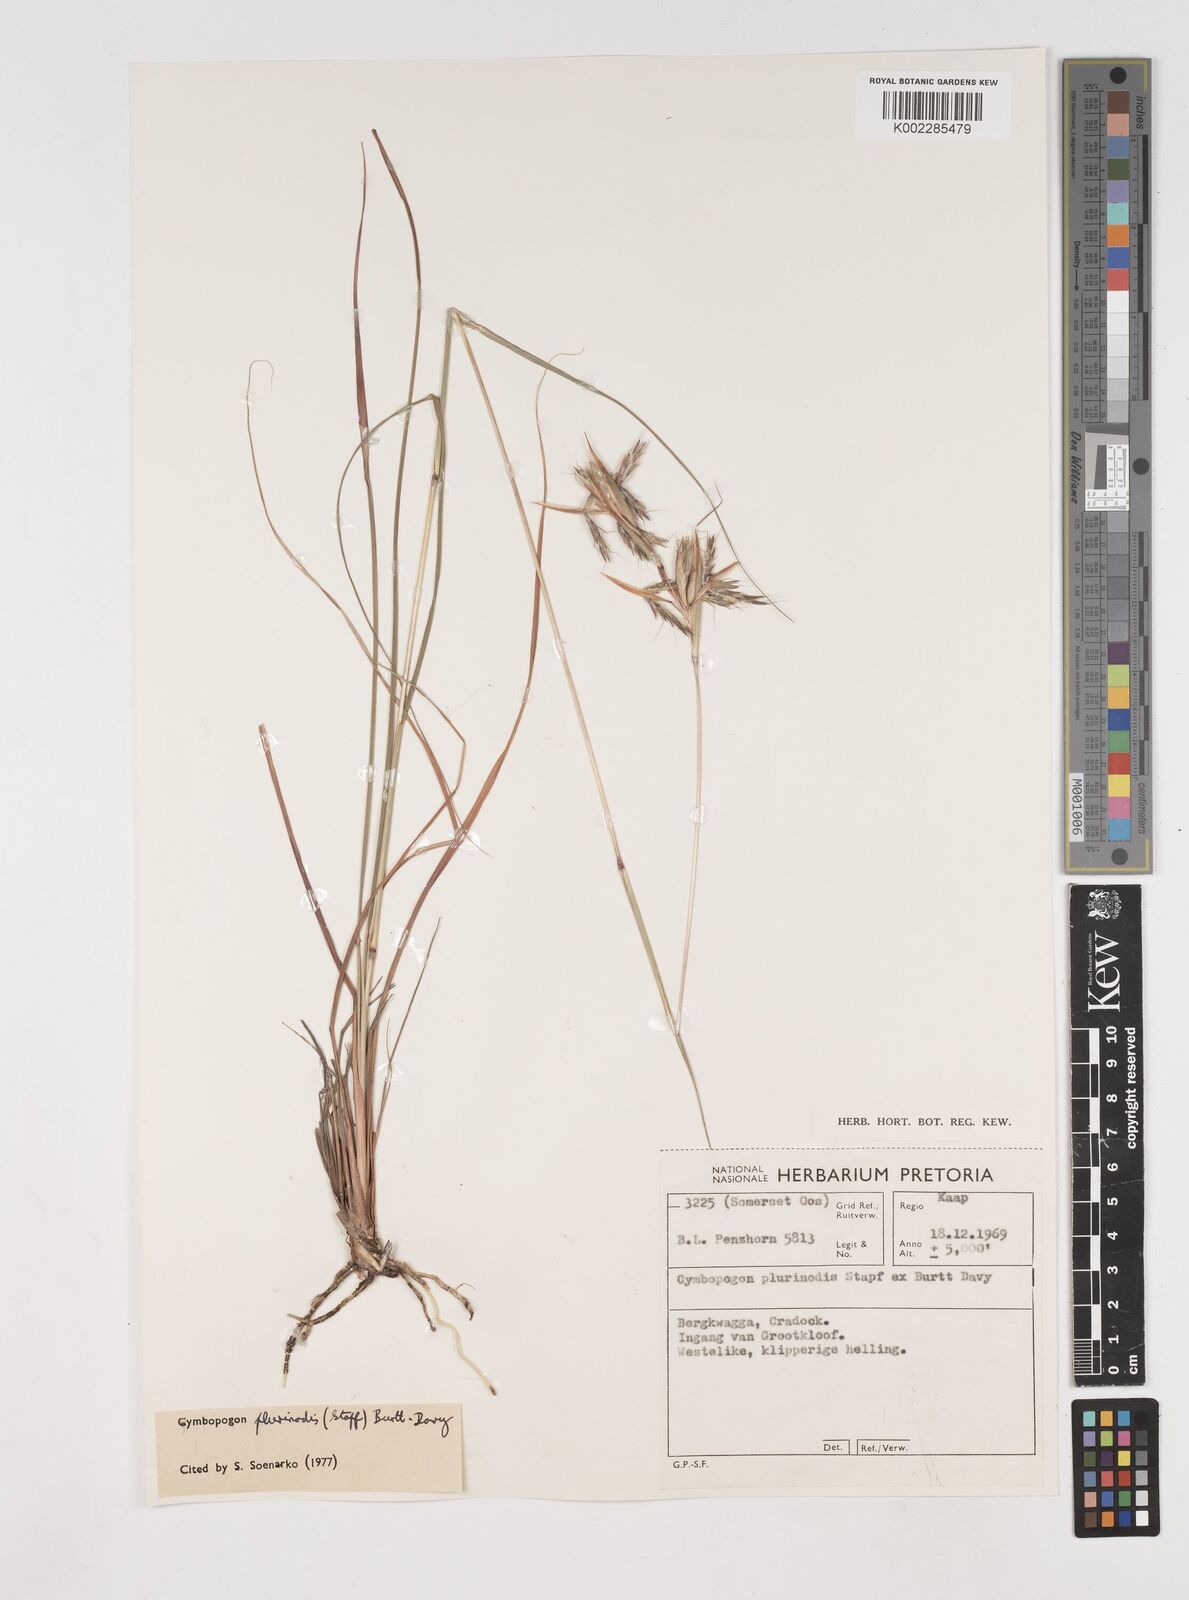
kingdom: Plantae
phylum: Tracheophyta
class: Liliopsida
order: Poales
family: Poaceae
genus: Cymbopogon
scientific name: Cymbopogon pospischilii
